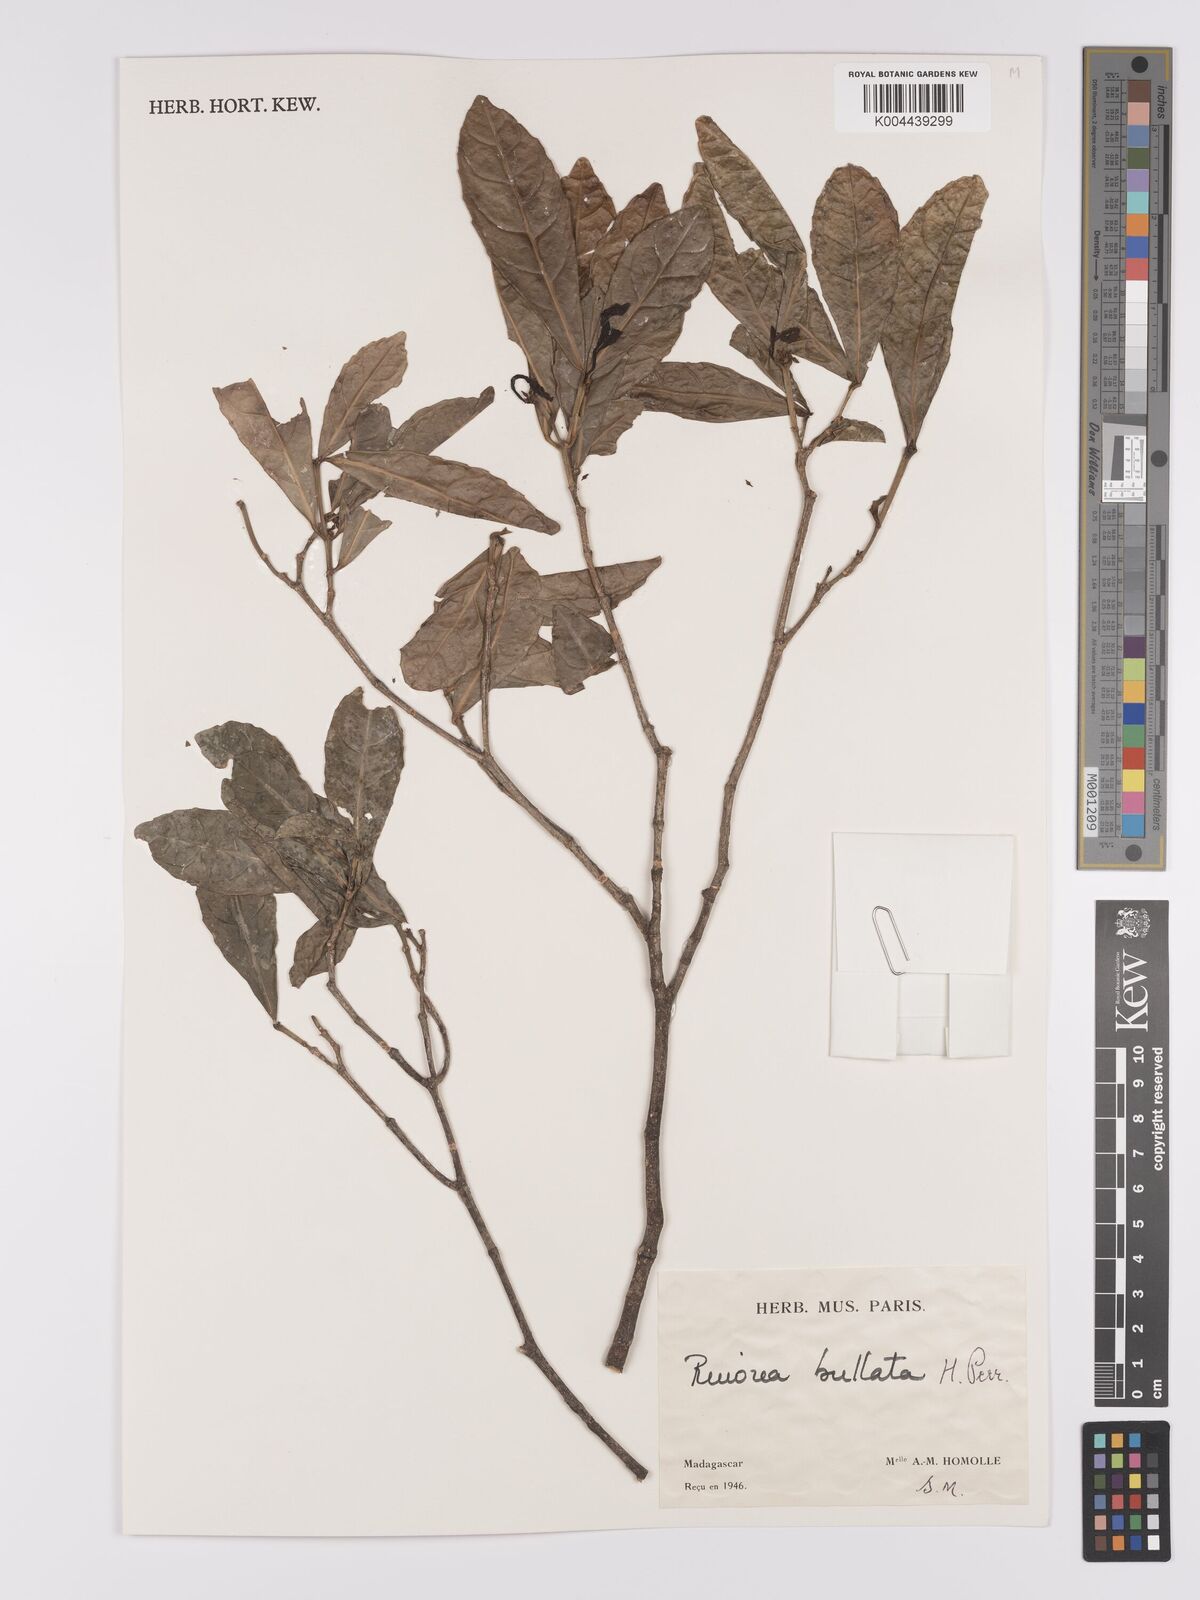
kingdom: Plantae
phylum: Tracheophyta
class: Magnoliopsida
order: Malpighiales
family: Violaceae
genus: Rinorea
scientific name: Rinorea bullata
